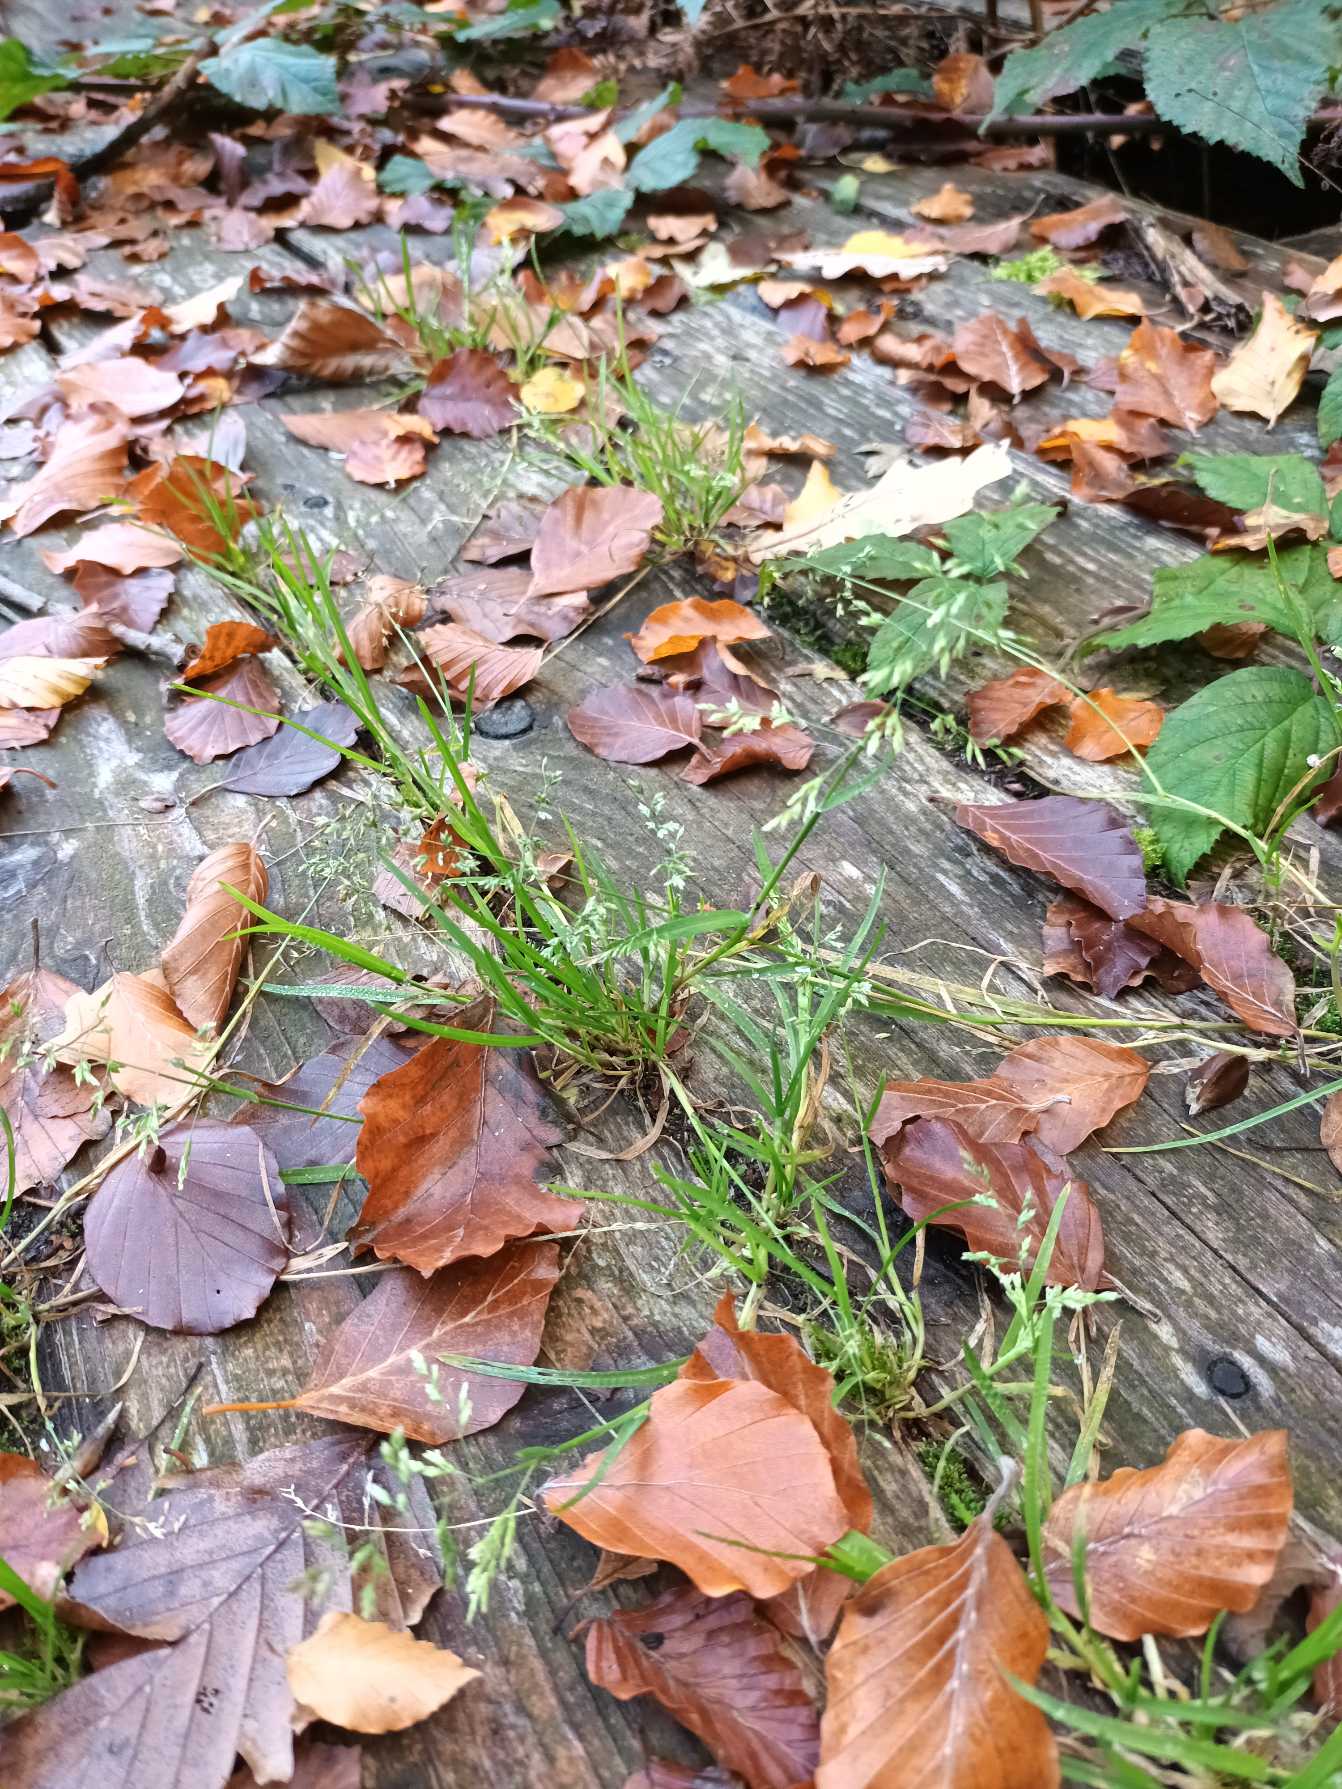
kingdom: Plantae
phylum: Tracheophyta
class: Liliopsida
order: Poales
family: Poaceae
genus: Poa
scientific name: Poa annua
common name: Enårig rapgræs
